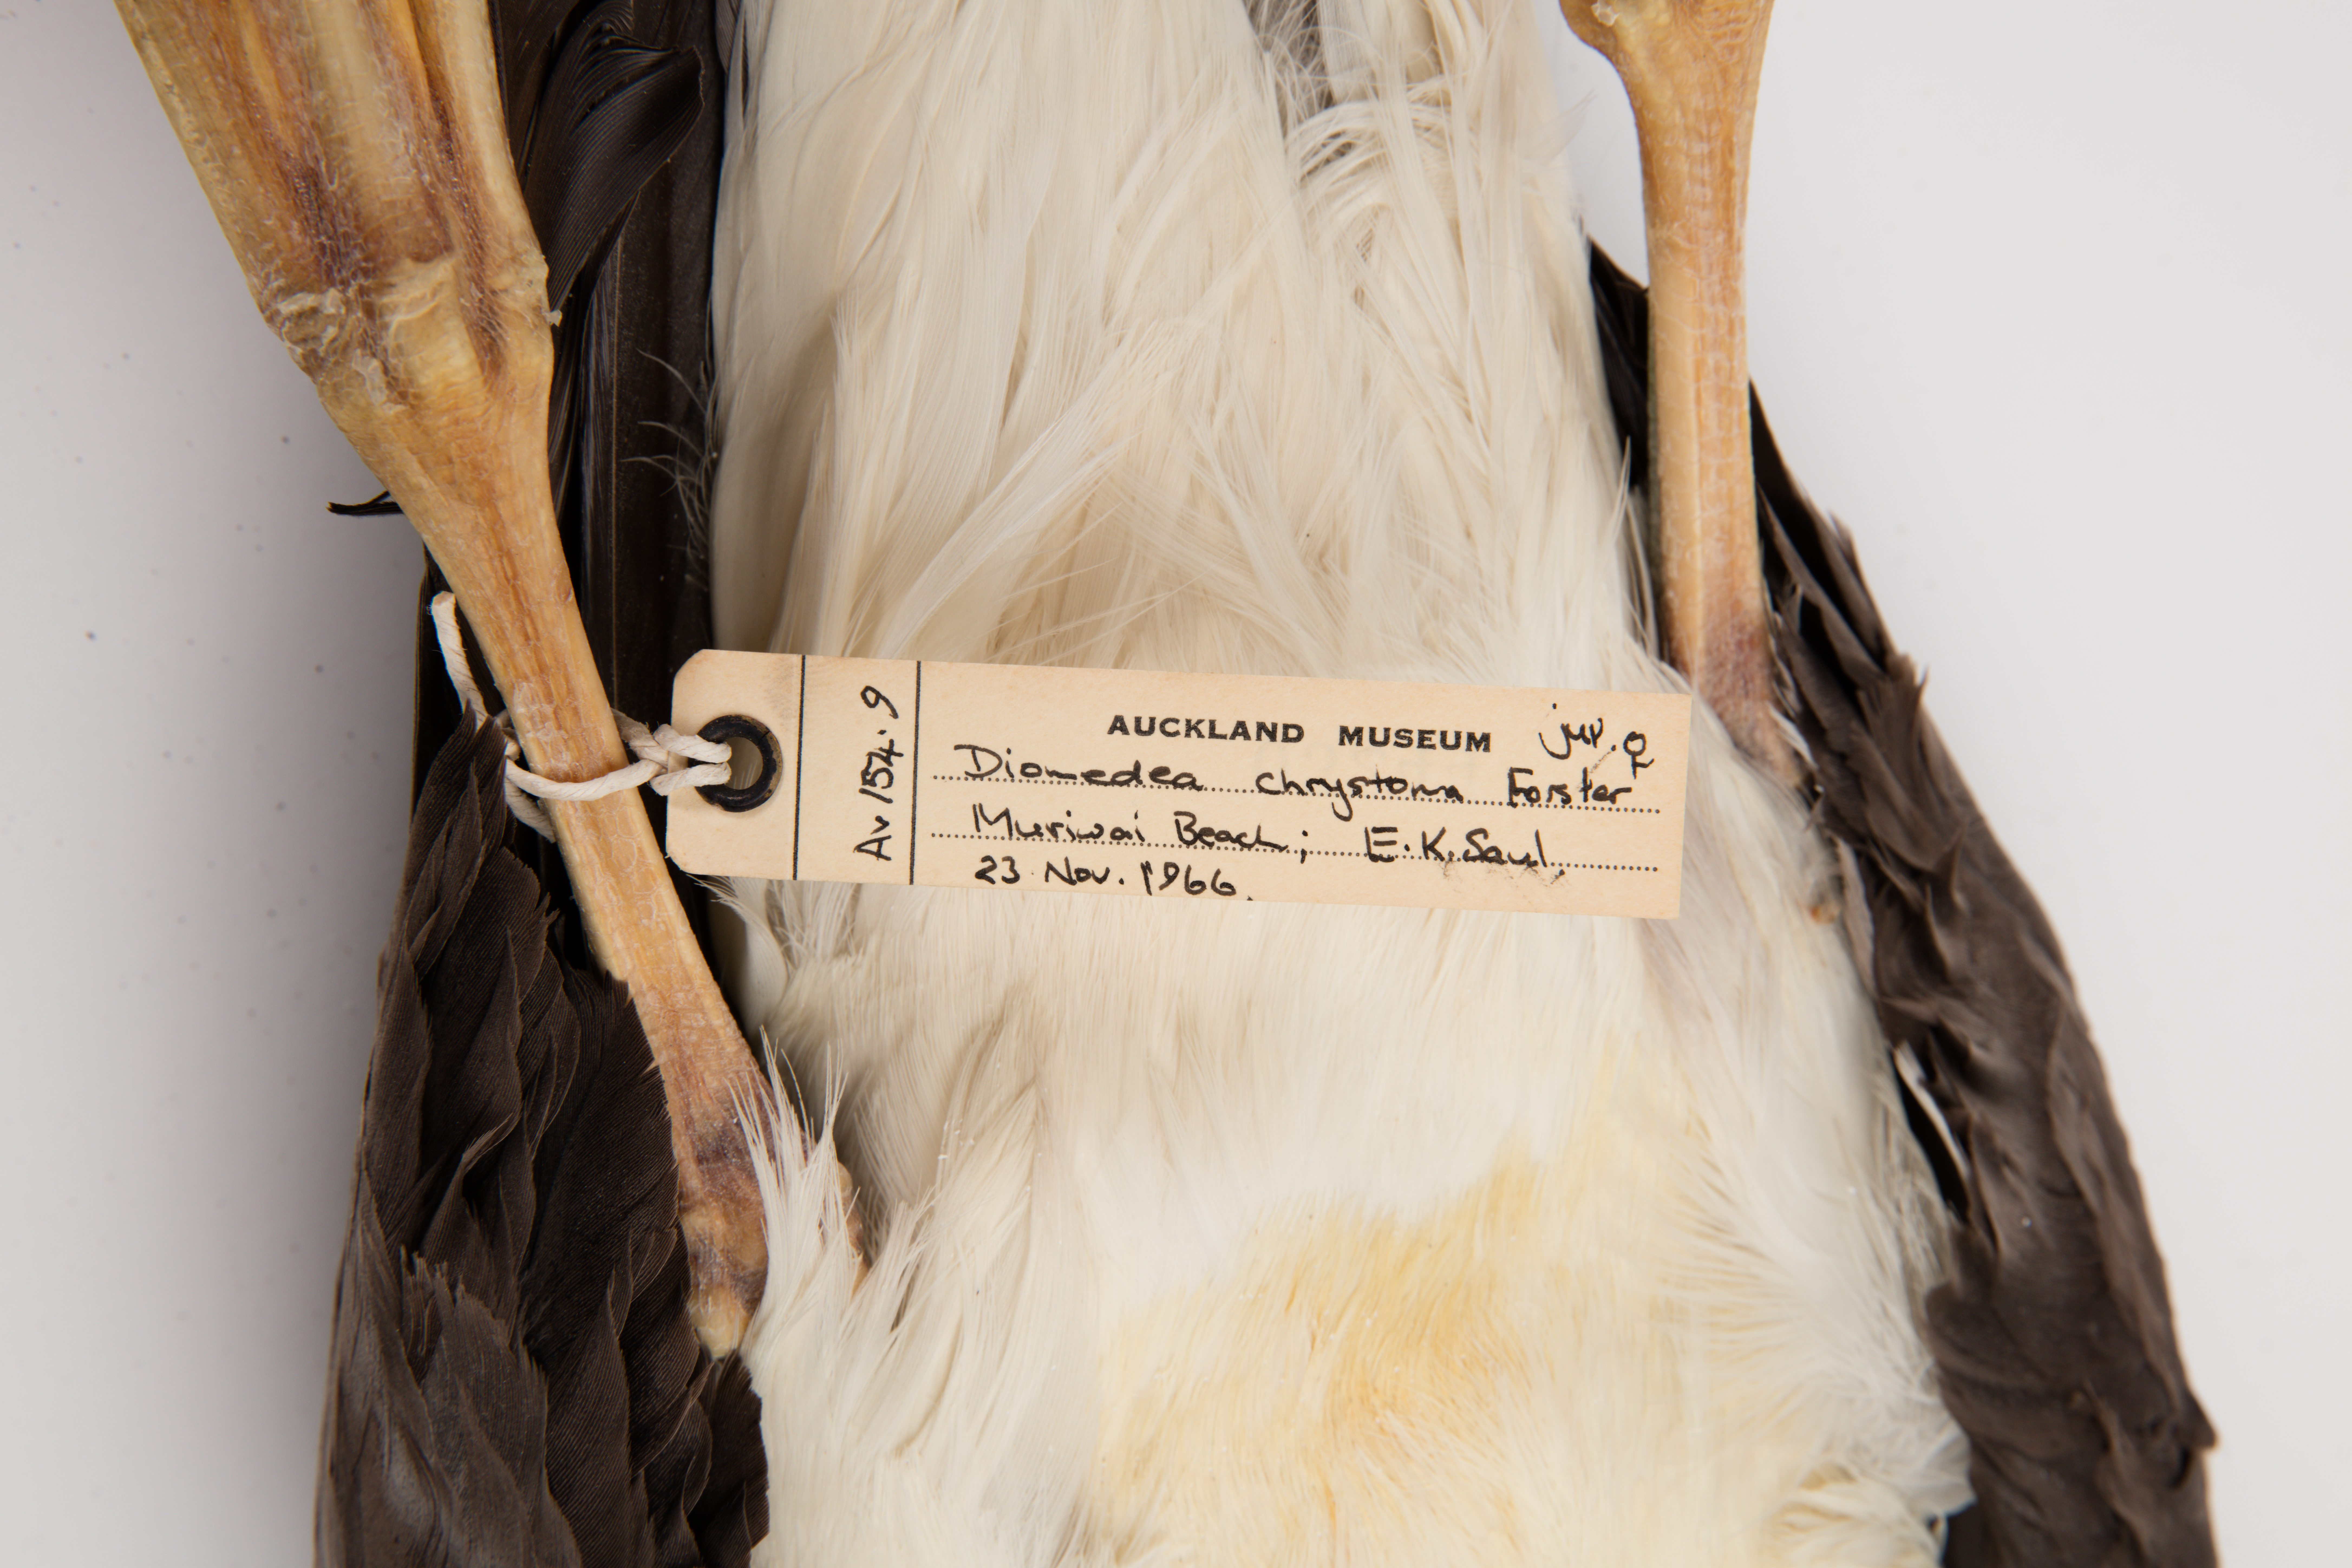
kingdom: Animalia
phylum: Chordata
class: Aves
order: Procellariiformes
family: Diomedeidae
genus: Thalassarche
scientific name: Thalassarche chrysostoma
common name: Grey-headed albatross
